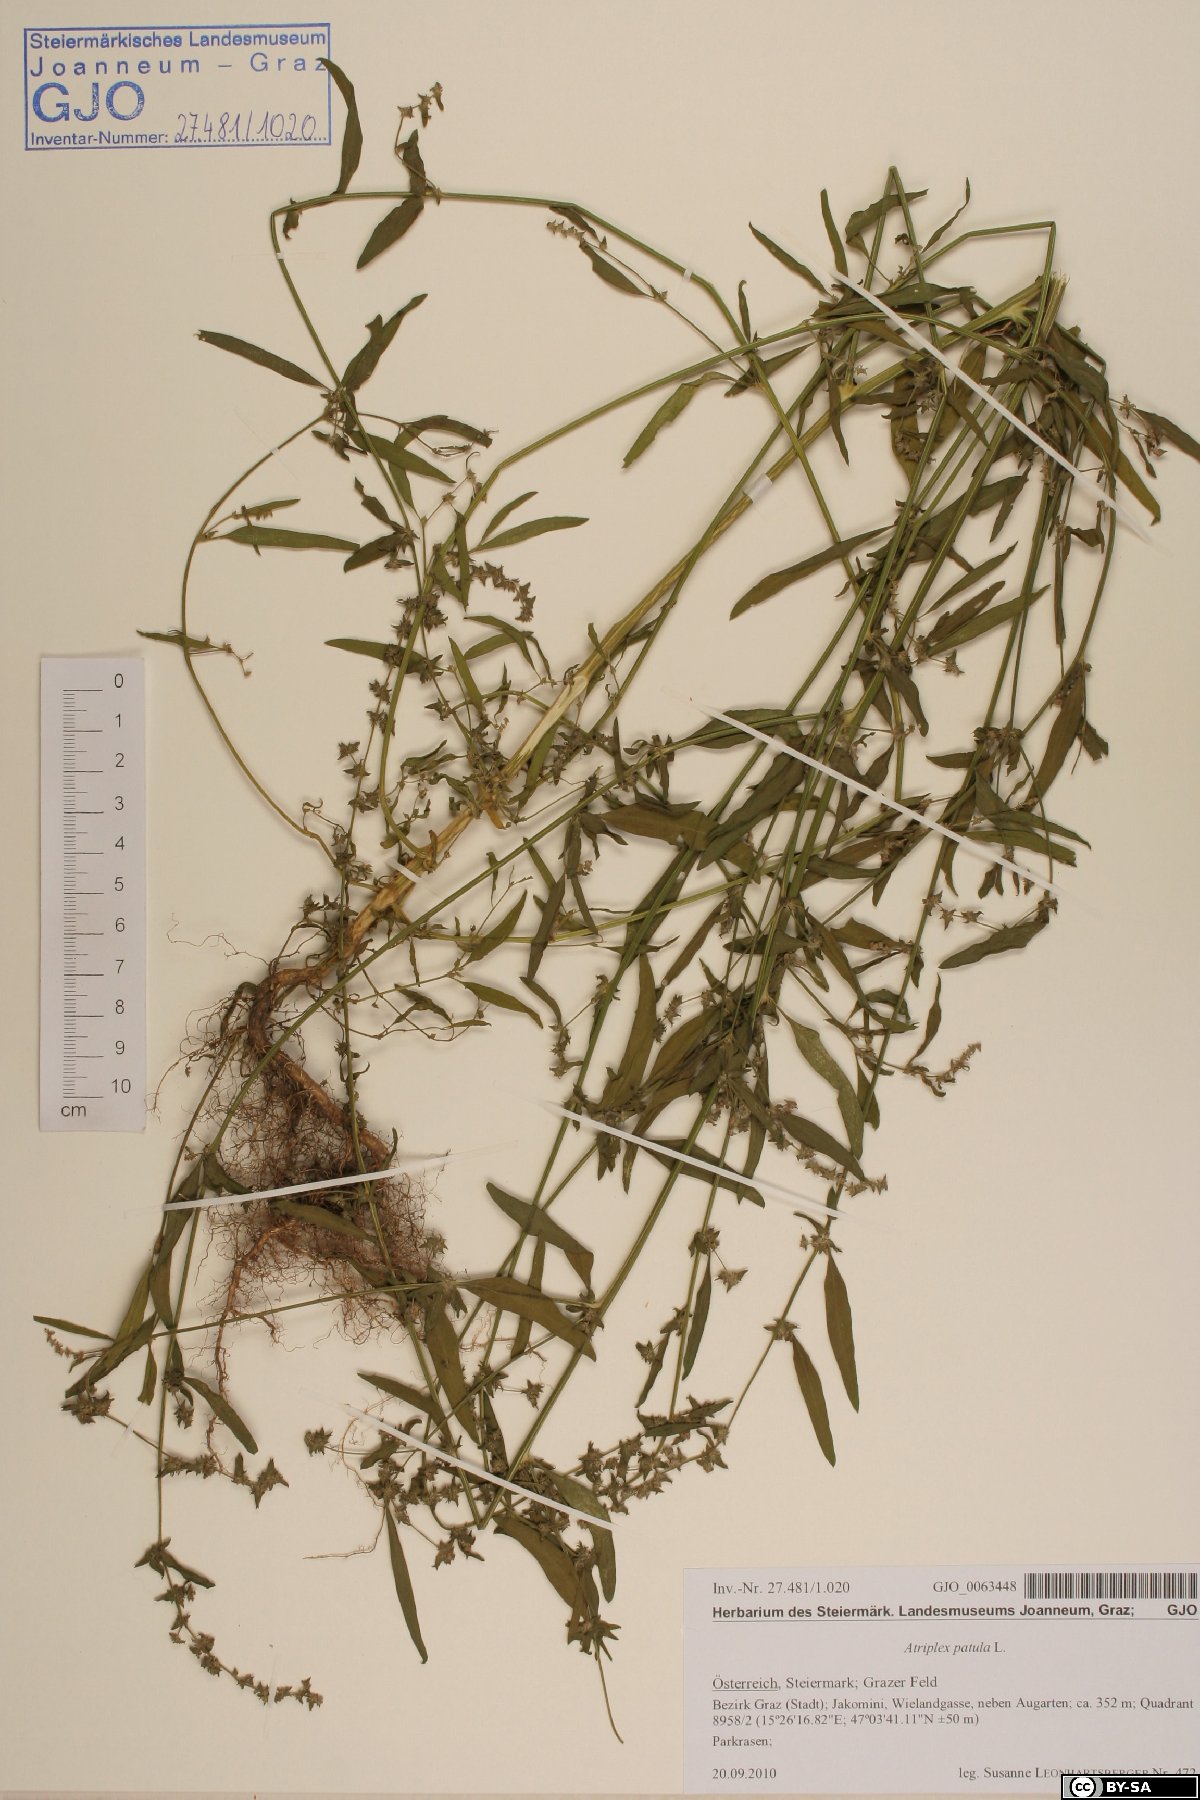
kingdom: Plantae
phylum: Tracheophyta
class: Magnoliopsida
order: Caryophyllales
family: Amaranthaceae
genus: Atriplex
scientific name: Atriplex patula
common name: Common orache
